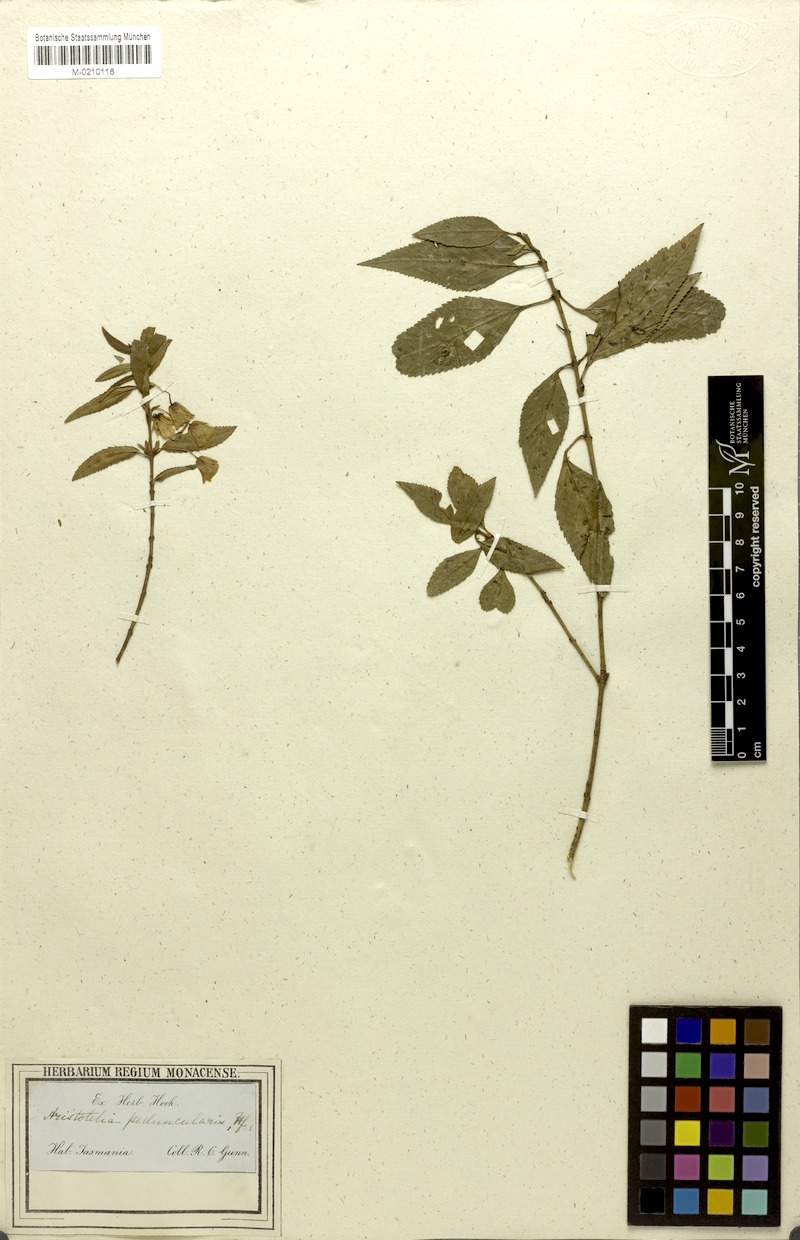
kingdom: Plantae
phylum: Tracheophyta
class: Magnoliopsida
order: Oxalidales
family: Elaeocarpaceae
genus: Aristotelia
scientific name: Aristotelia peduncularis
